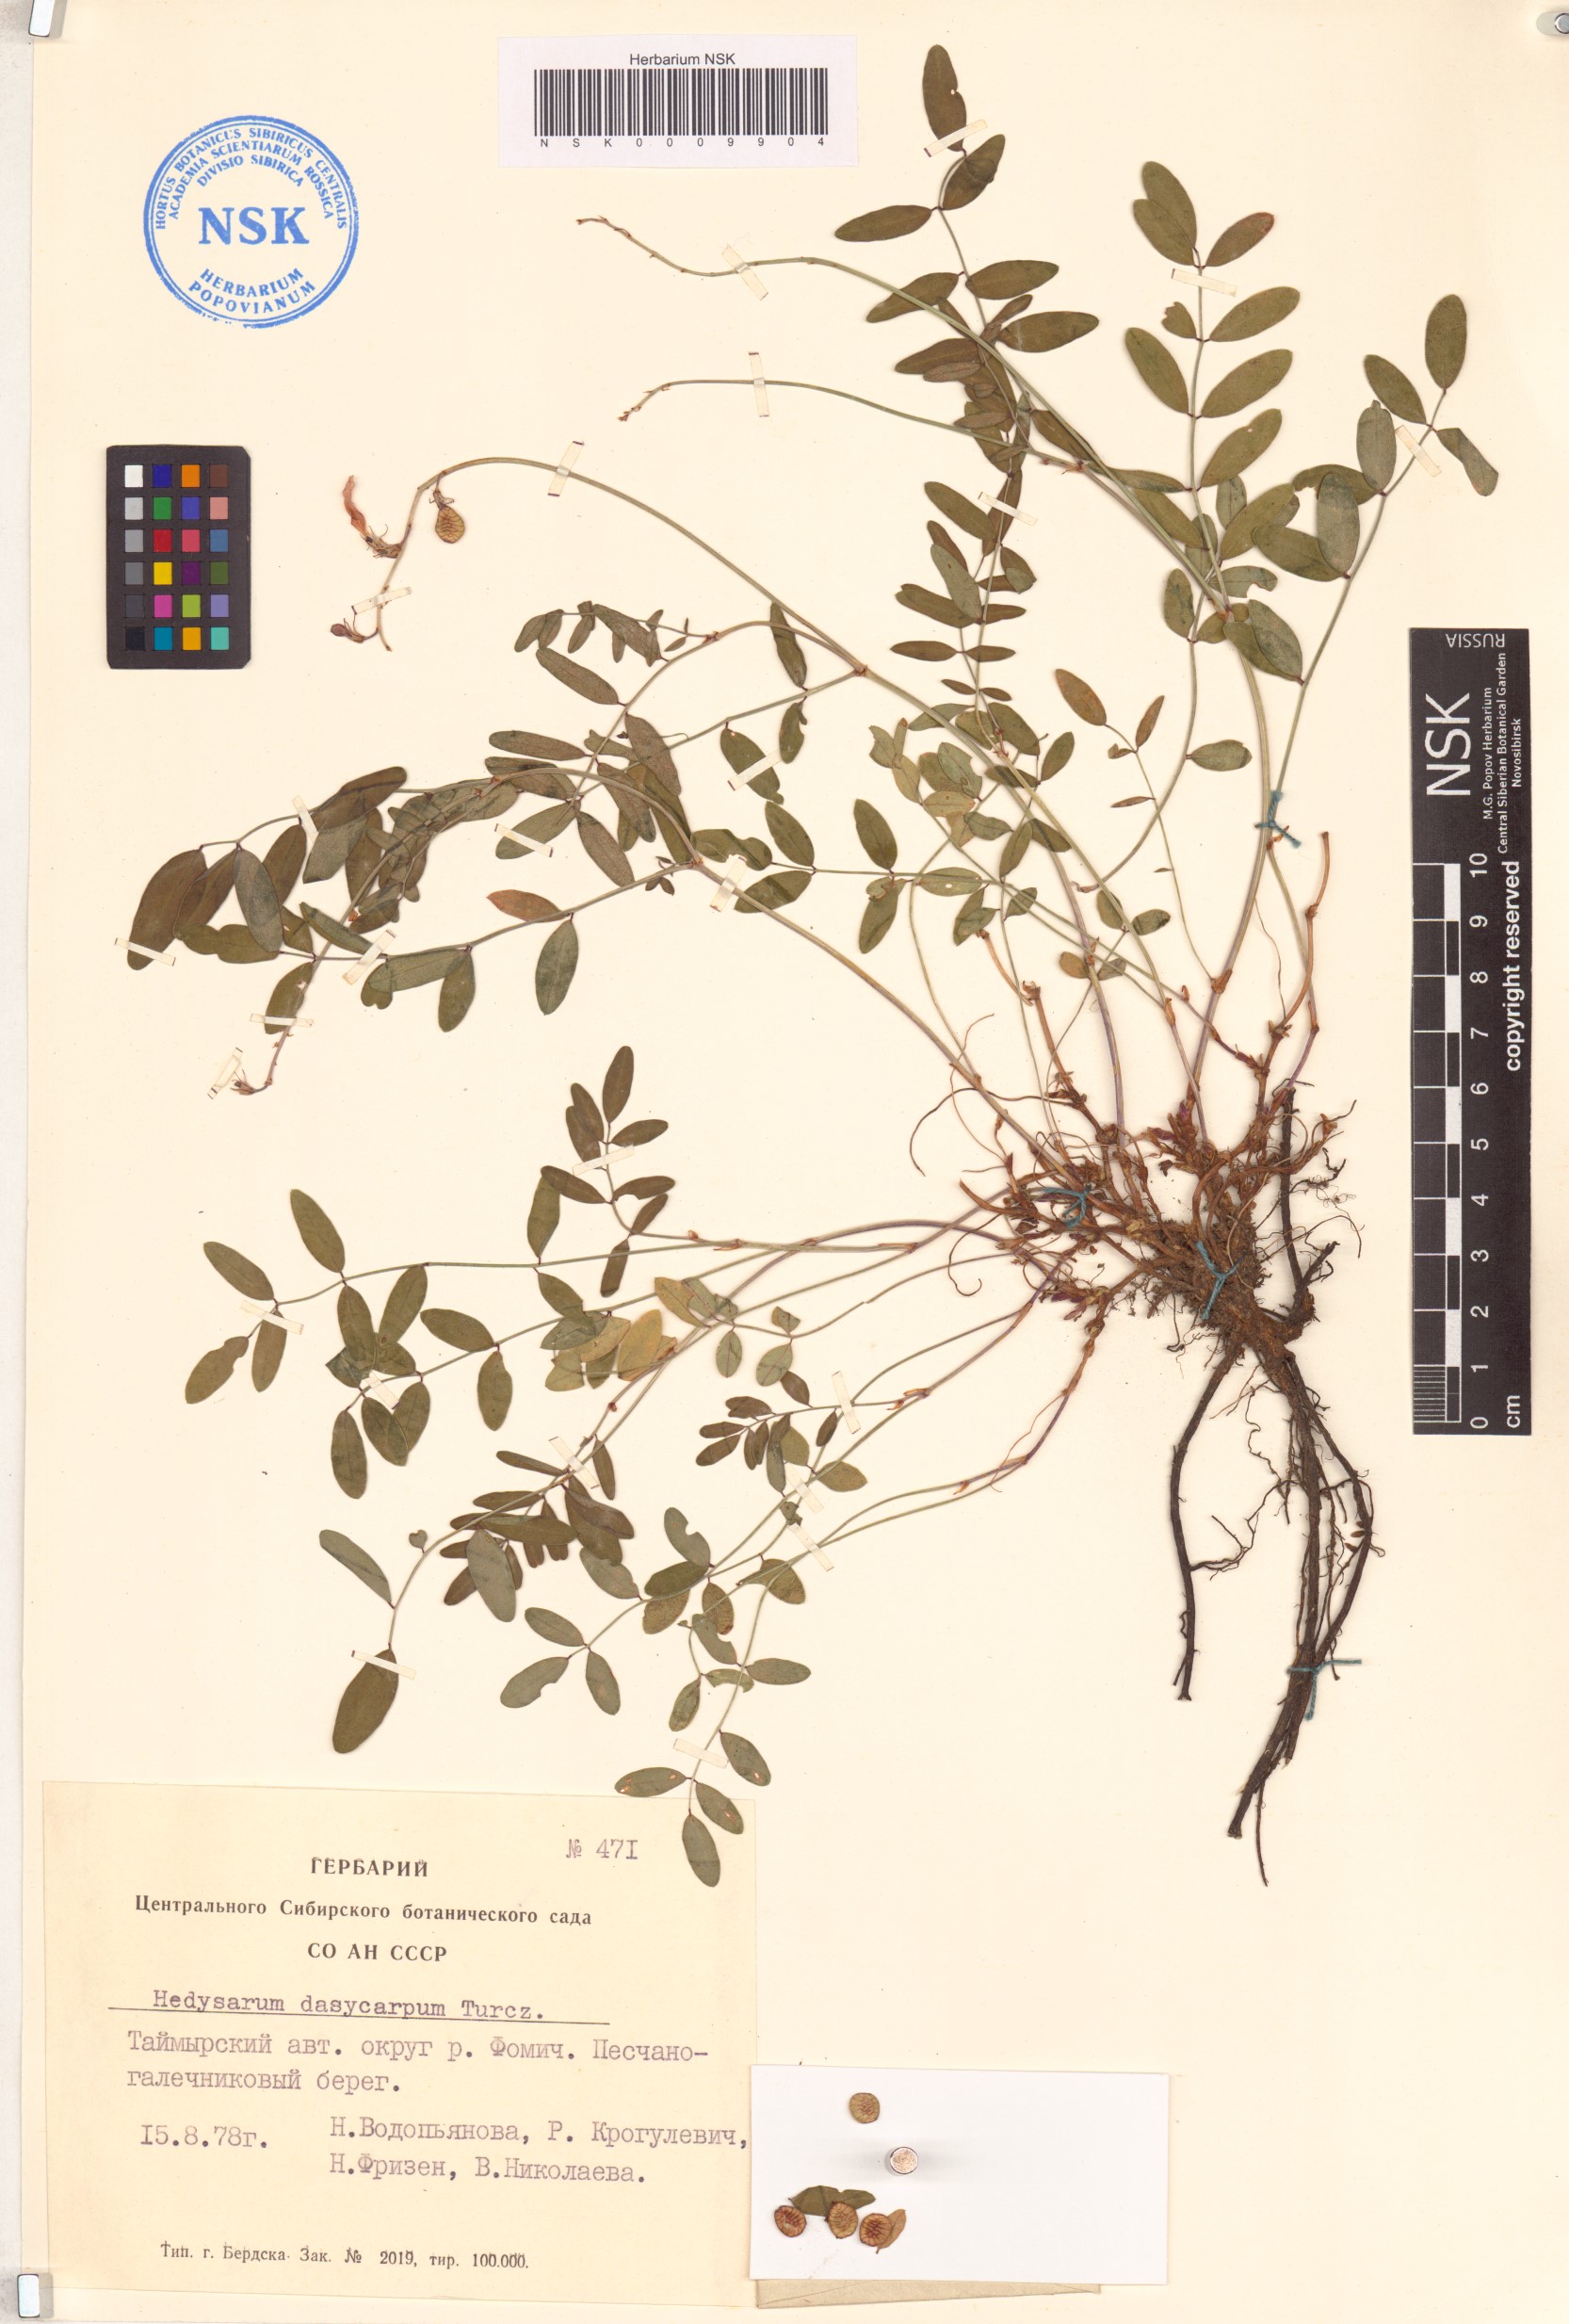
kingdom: Plantae
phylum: Tracheophyta
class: Magnoliopsida
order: Fabales
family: Fabaceae
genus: Hedysarum
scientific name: Hedysarum dasycarpum
